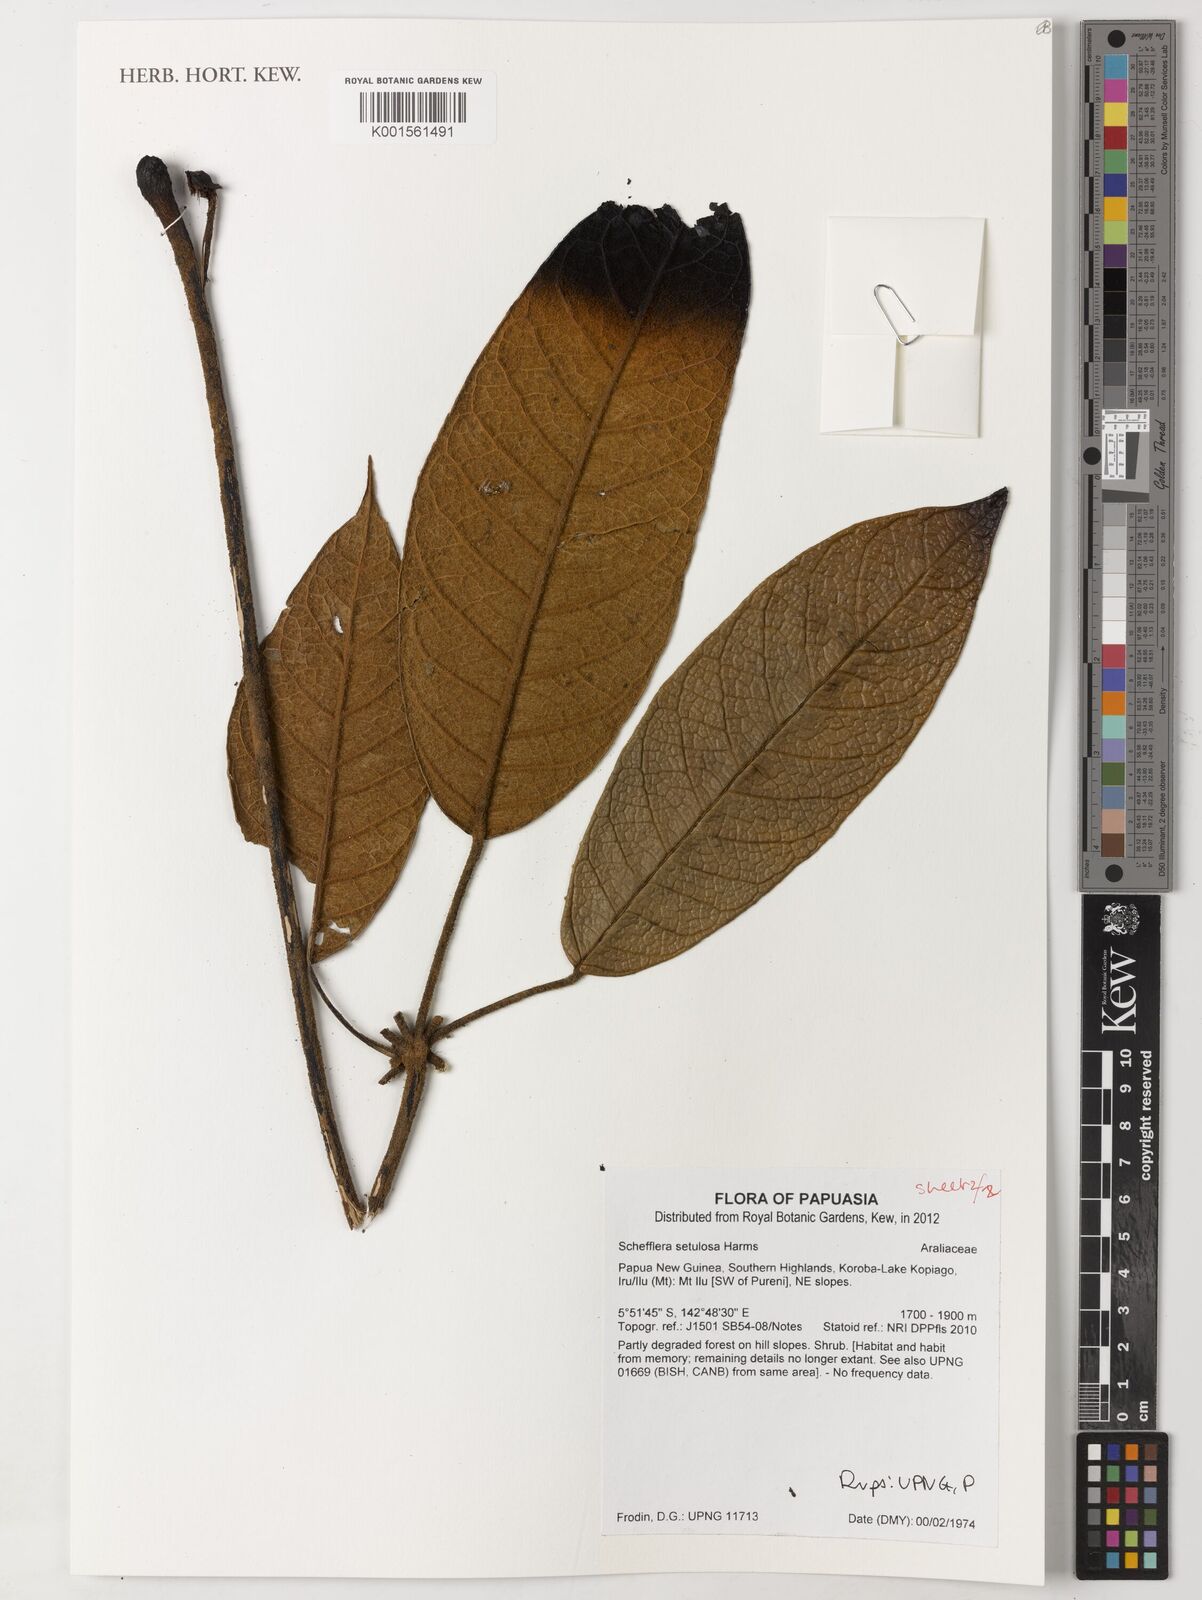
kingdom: Plantae
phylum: Tracheophyta
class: Magnoliopsida
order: Apiales
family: Araliaceae
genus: Heptapleurum
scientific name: Heptapleurum setulosum
